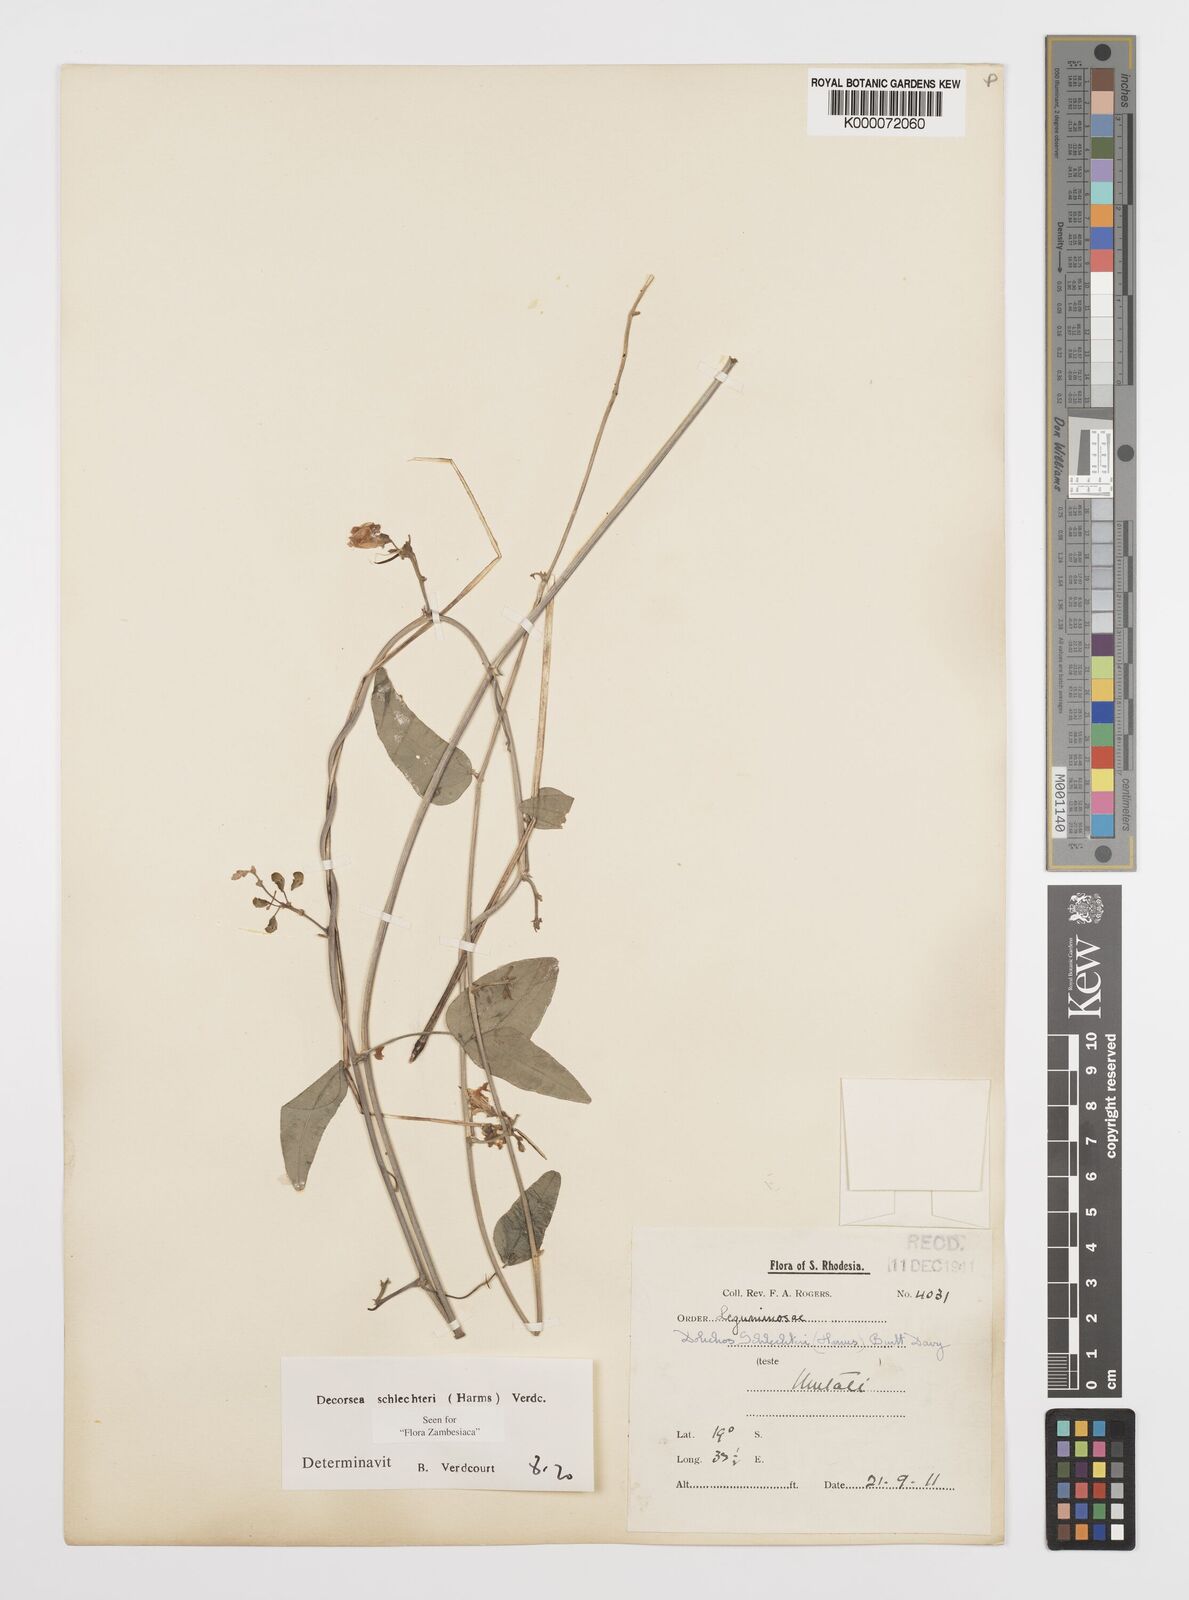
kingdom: Plantae
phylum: Tracheophyta
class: Magnoliopsida
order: Fabales
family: Fabaceae
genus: Decorsea
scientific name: Decorsea schlechteri
